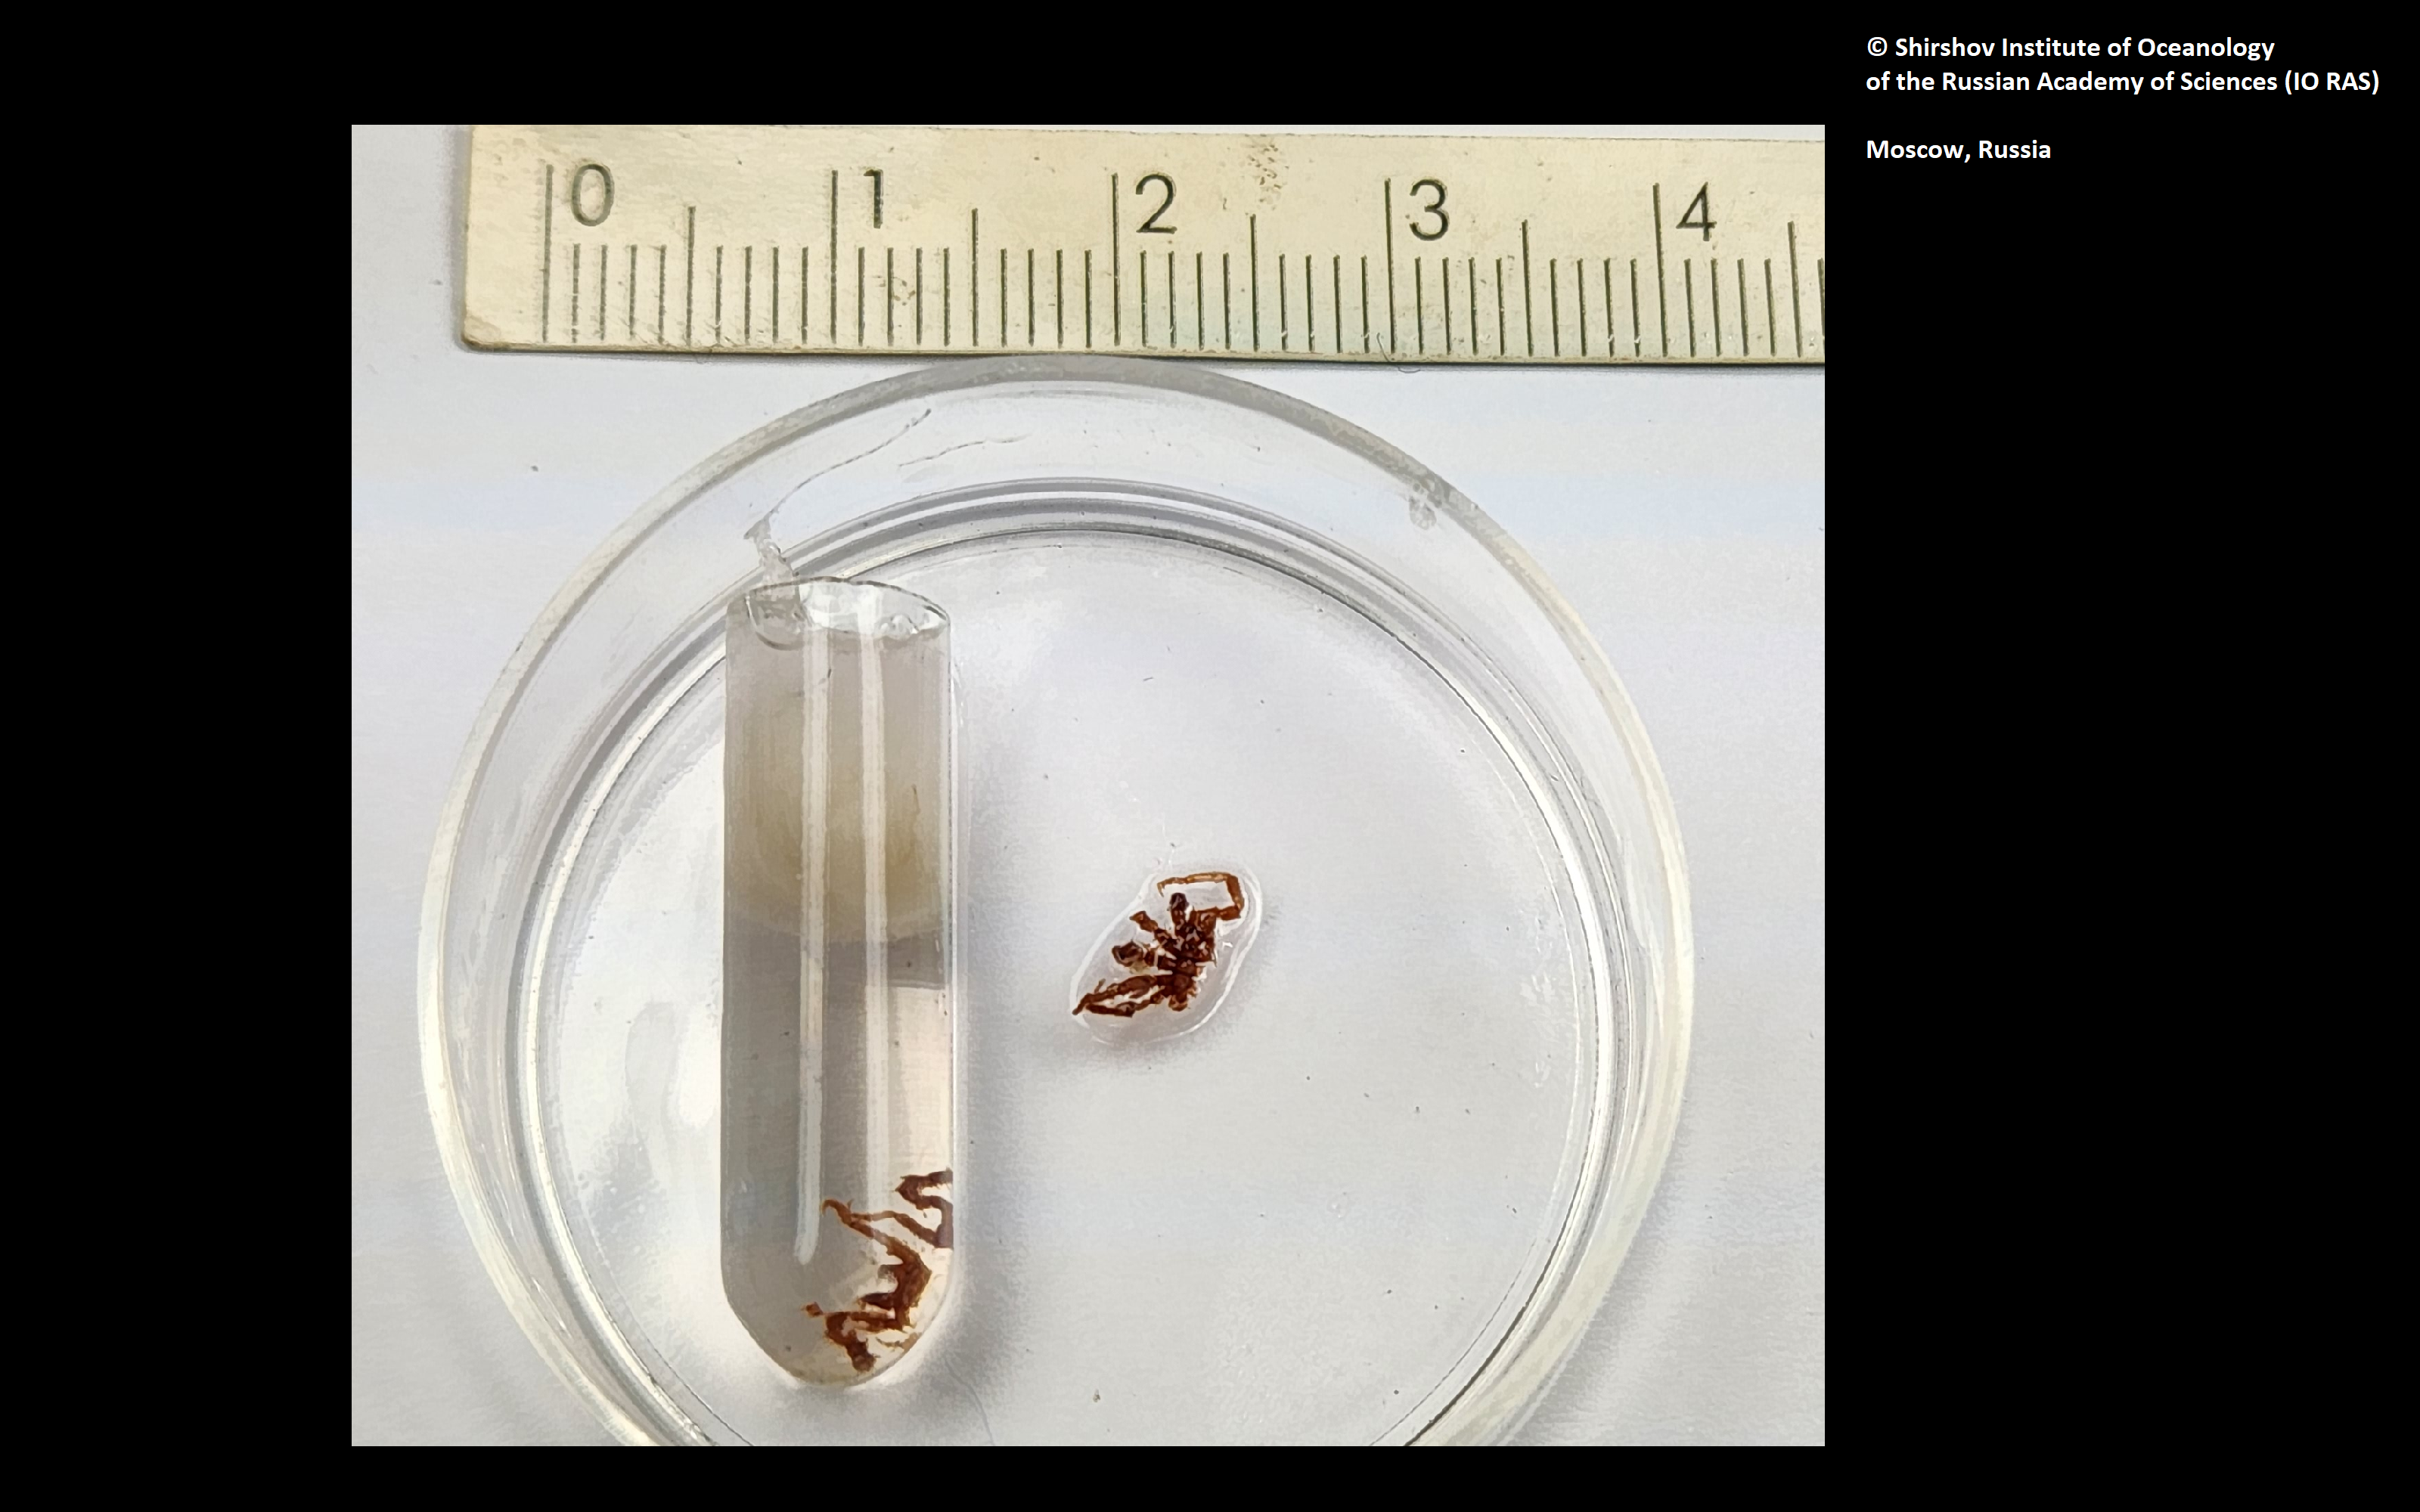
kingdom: Animalia
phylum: Arthropoda
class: Pycnogonida
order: Pantopoda
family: Callipallenidae
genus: Pseudopallene
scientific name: Pseudopallene collaris
